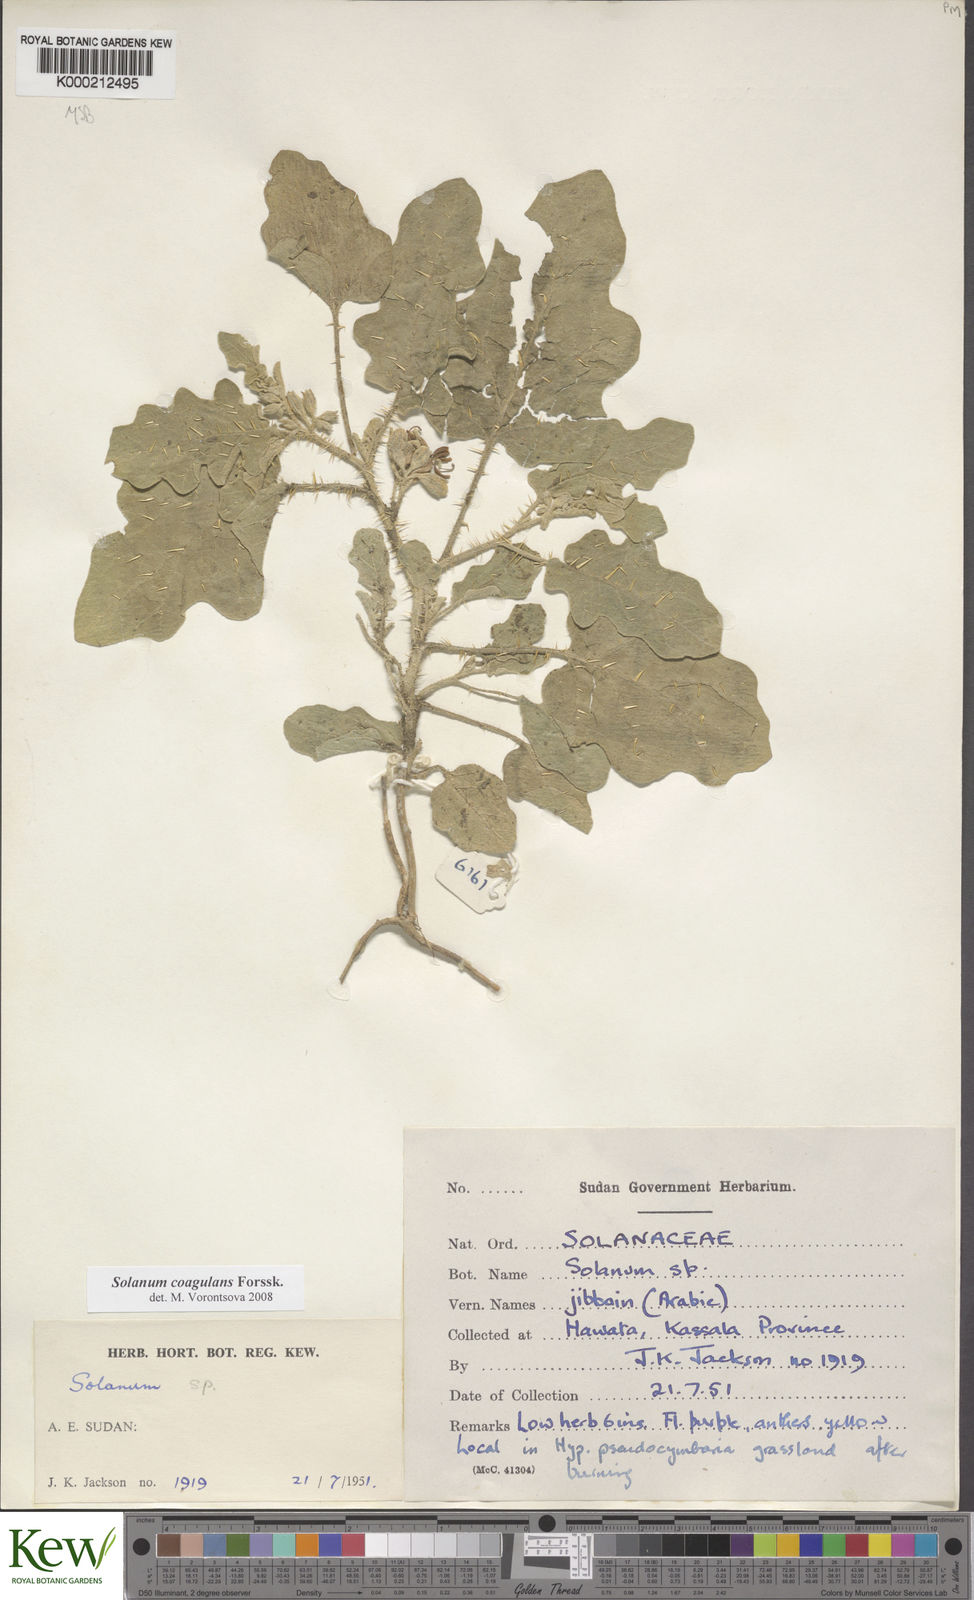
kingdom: Plantae
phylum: Tracheophyta
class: Magnoliopsida
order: Solanales
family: Solanaceae
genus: Solanum
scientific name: Solanum coagulans
